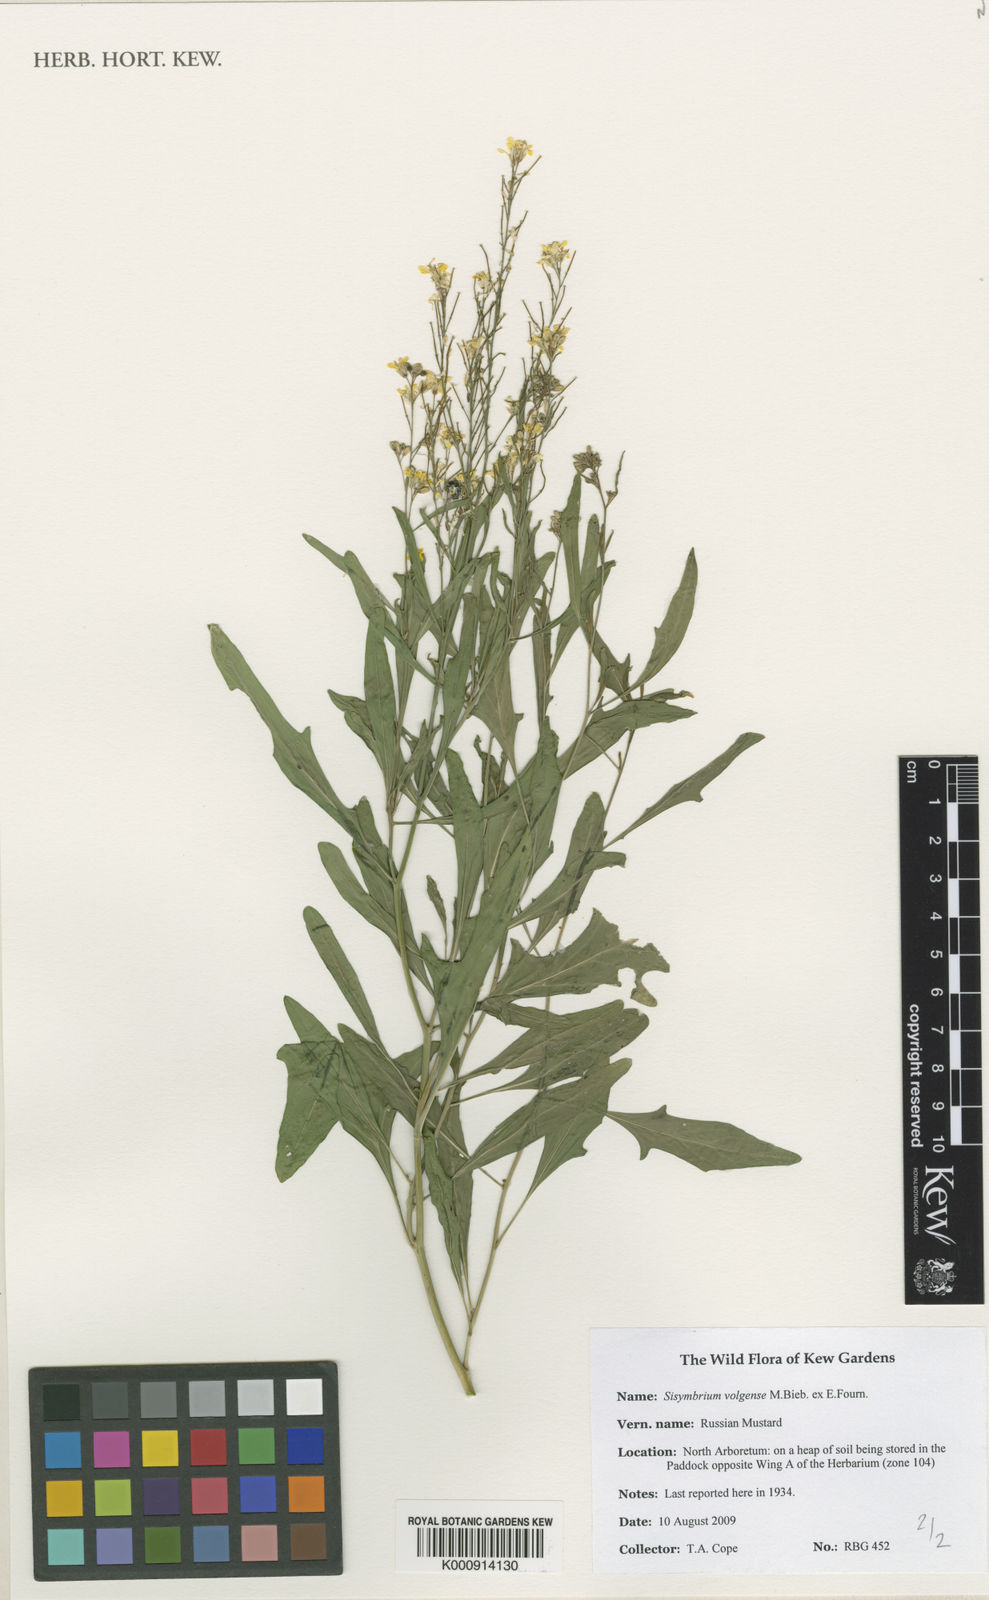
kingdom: Plantae
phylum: Tracheophyta
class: Magnoliopsida
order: Brassicales
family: Brassicaceae
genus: Sisymbrium
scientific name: Sisymbrium volgense
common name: Russian mustard
